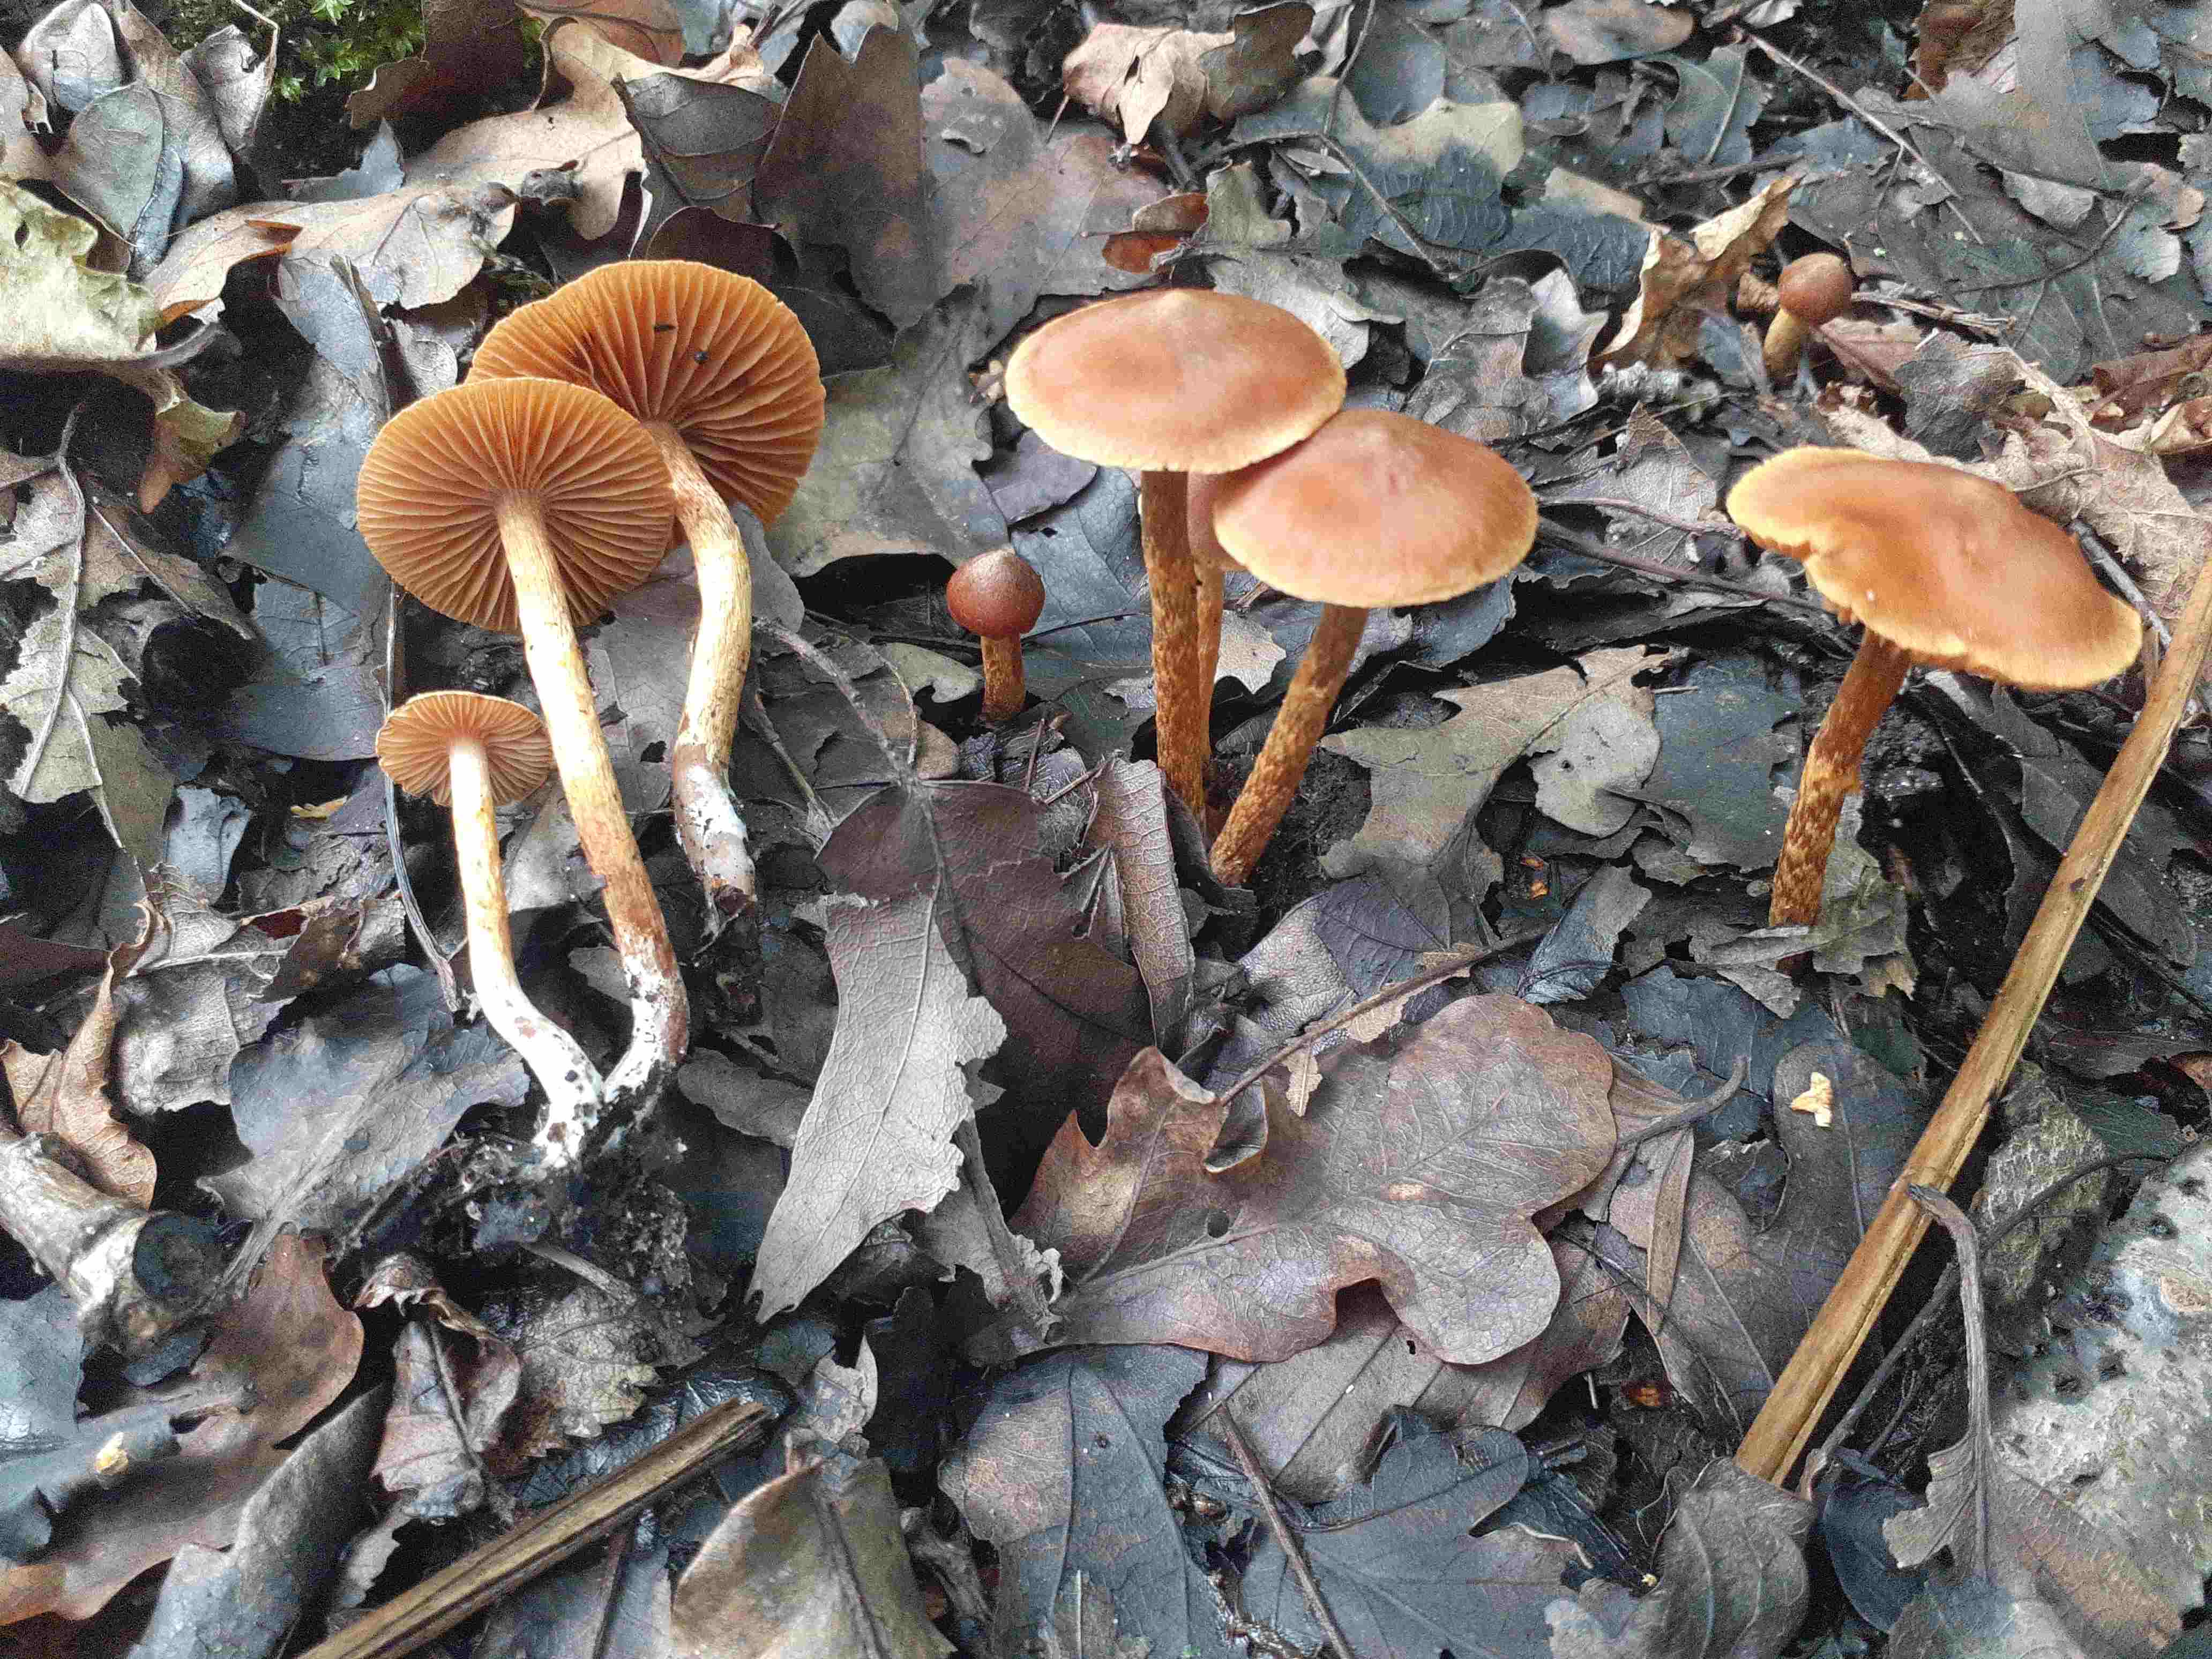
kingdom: Fungi
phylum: Basidiomycota
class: Agaricomycetes
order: Agaricales
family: Cortinariaceae
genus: Cortinarius
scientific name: Cortinarius saniosus
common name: gultrævlet slørhat
